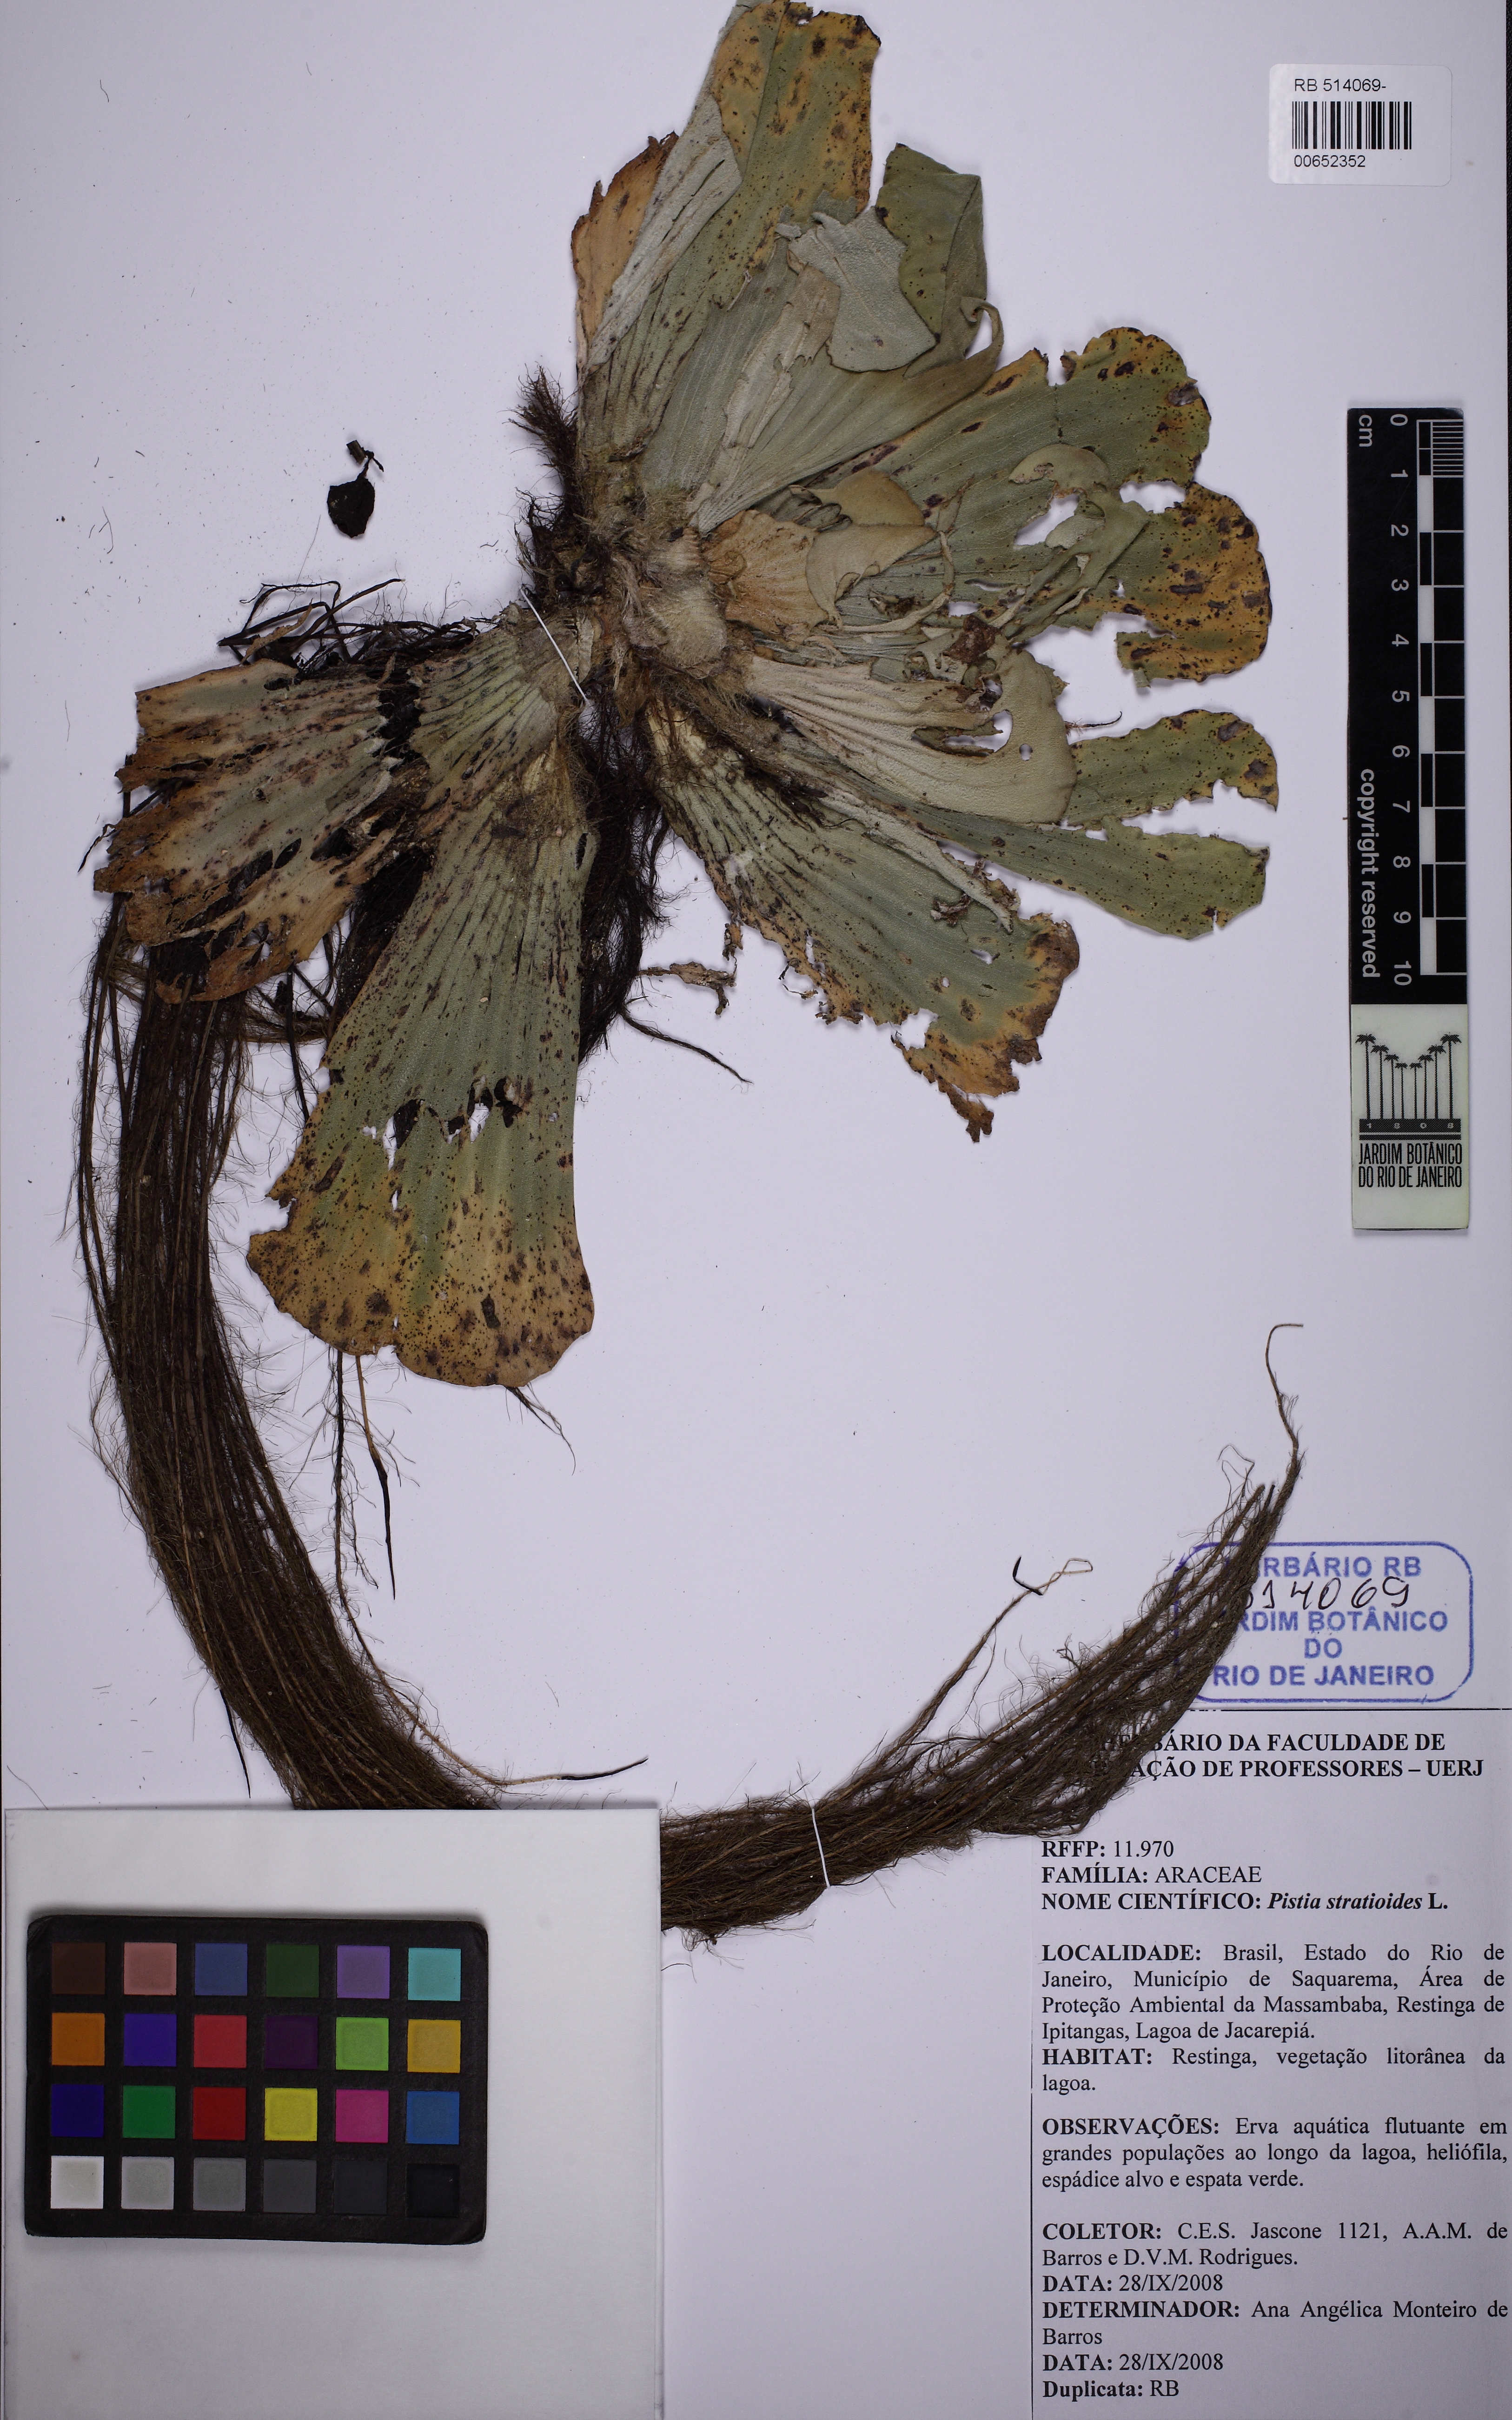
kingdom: Plantae
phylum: Tracheophyta
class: Liliopsida
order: Alismatales
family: Araceae
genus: Pistia
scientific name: Pistia stratiotes
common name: Water lettuce
